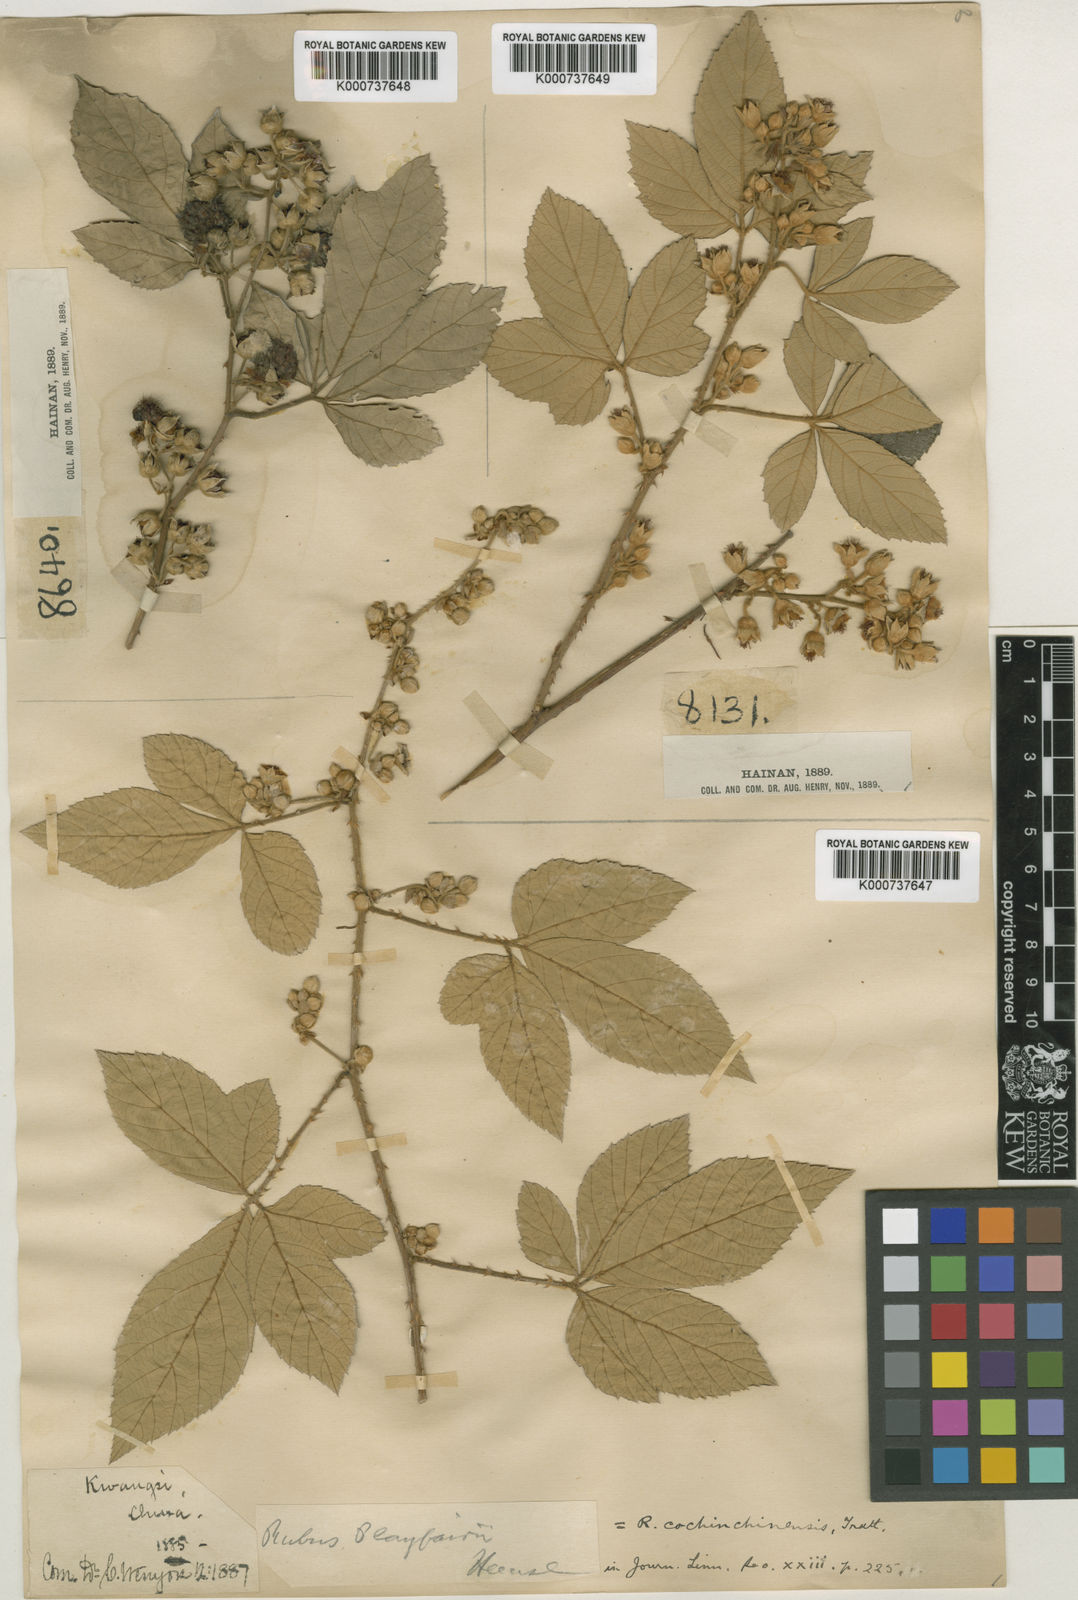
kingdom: Plantae
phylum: Tracheophyta
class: Magnoliopsida
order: Rosales
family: Rosaceae
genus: Rubus
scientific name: Rubus cochinchinensis
